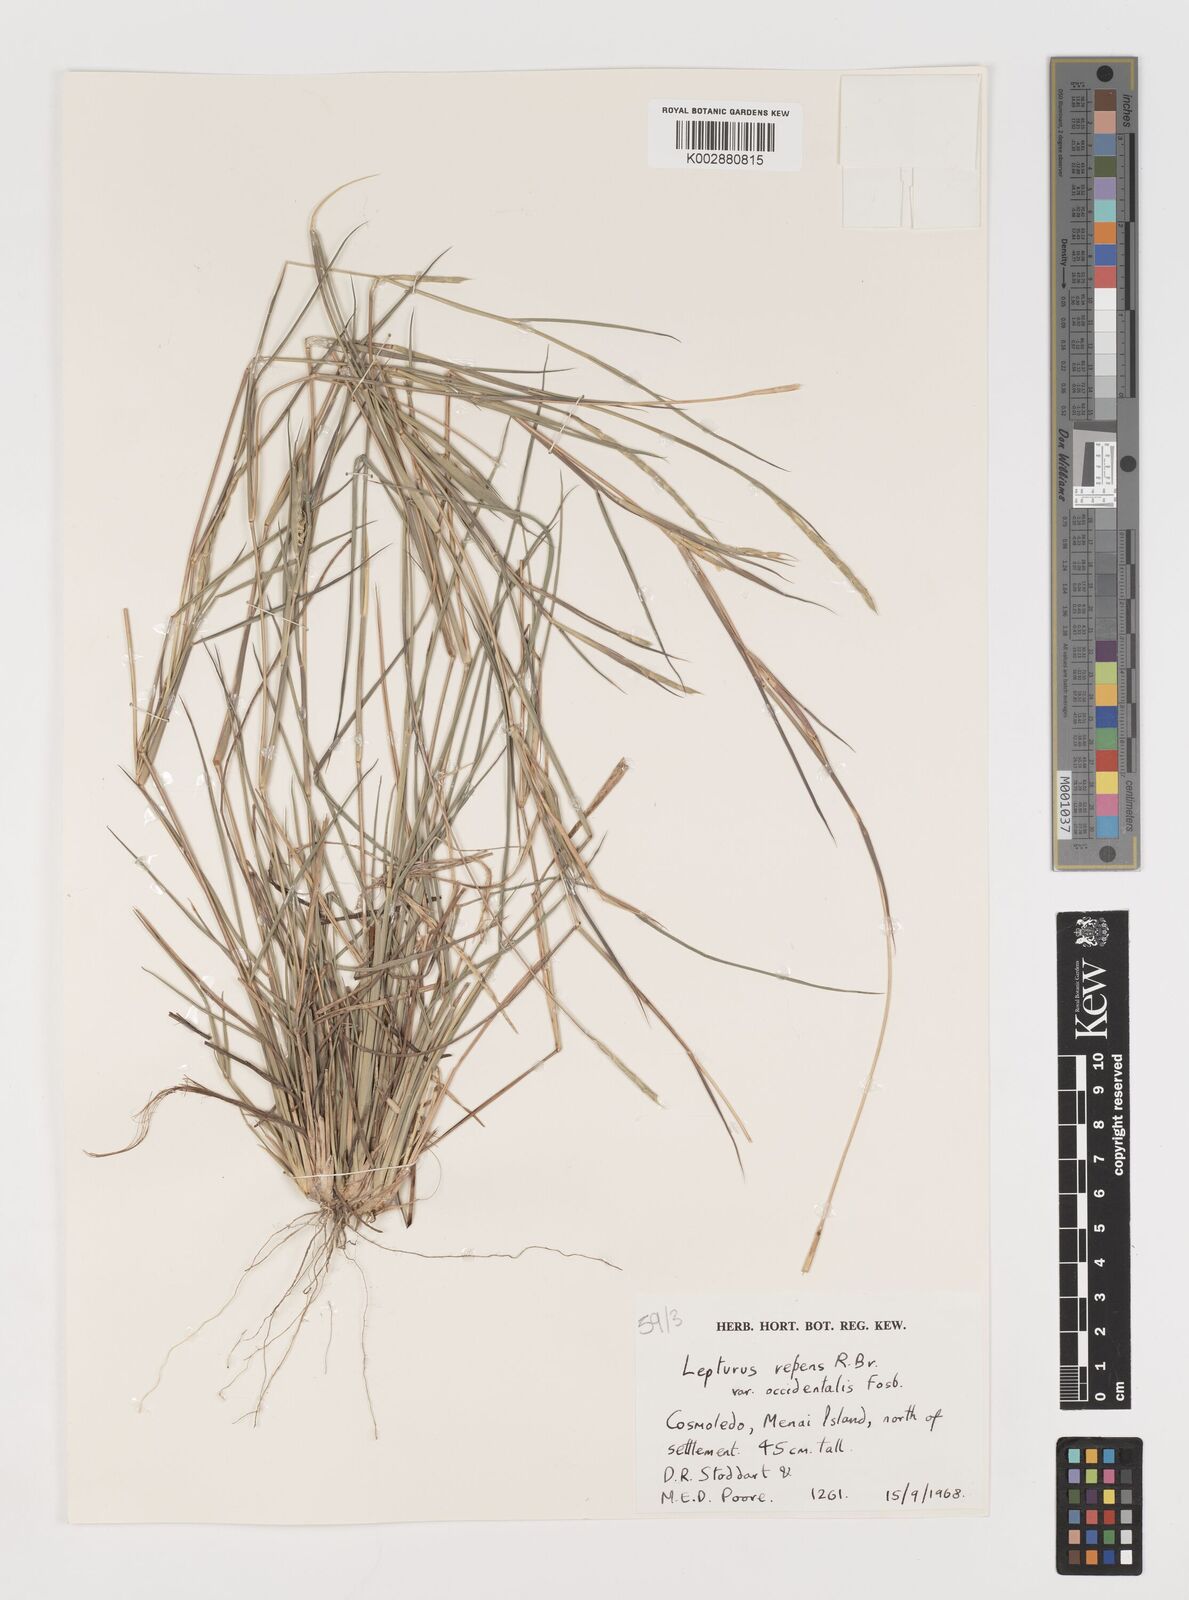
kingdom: Plantae
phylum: Tracheophyta
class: Liliopsida
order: Poales
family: Poaceae
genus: Lepturus
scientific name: Lepturus repens
